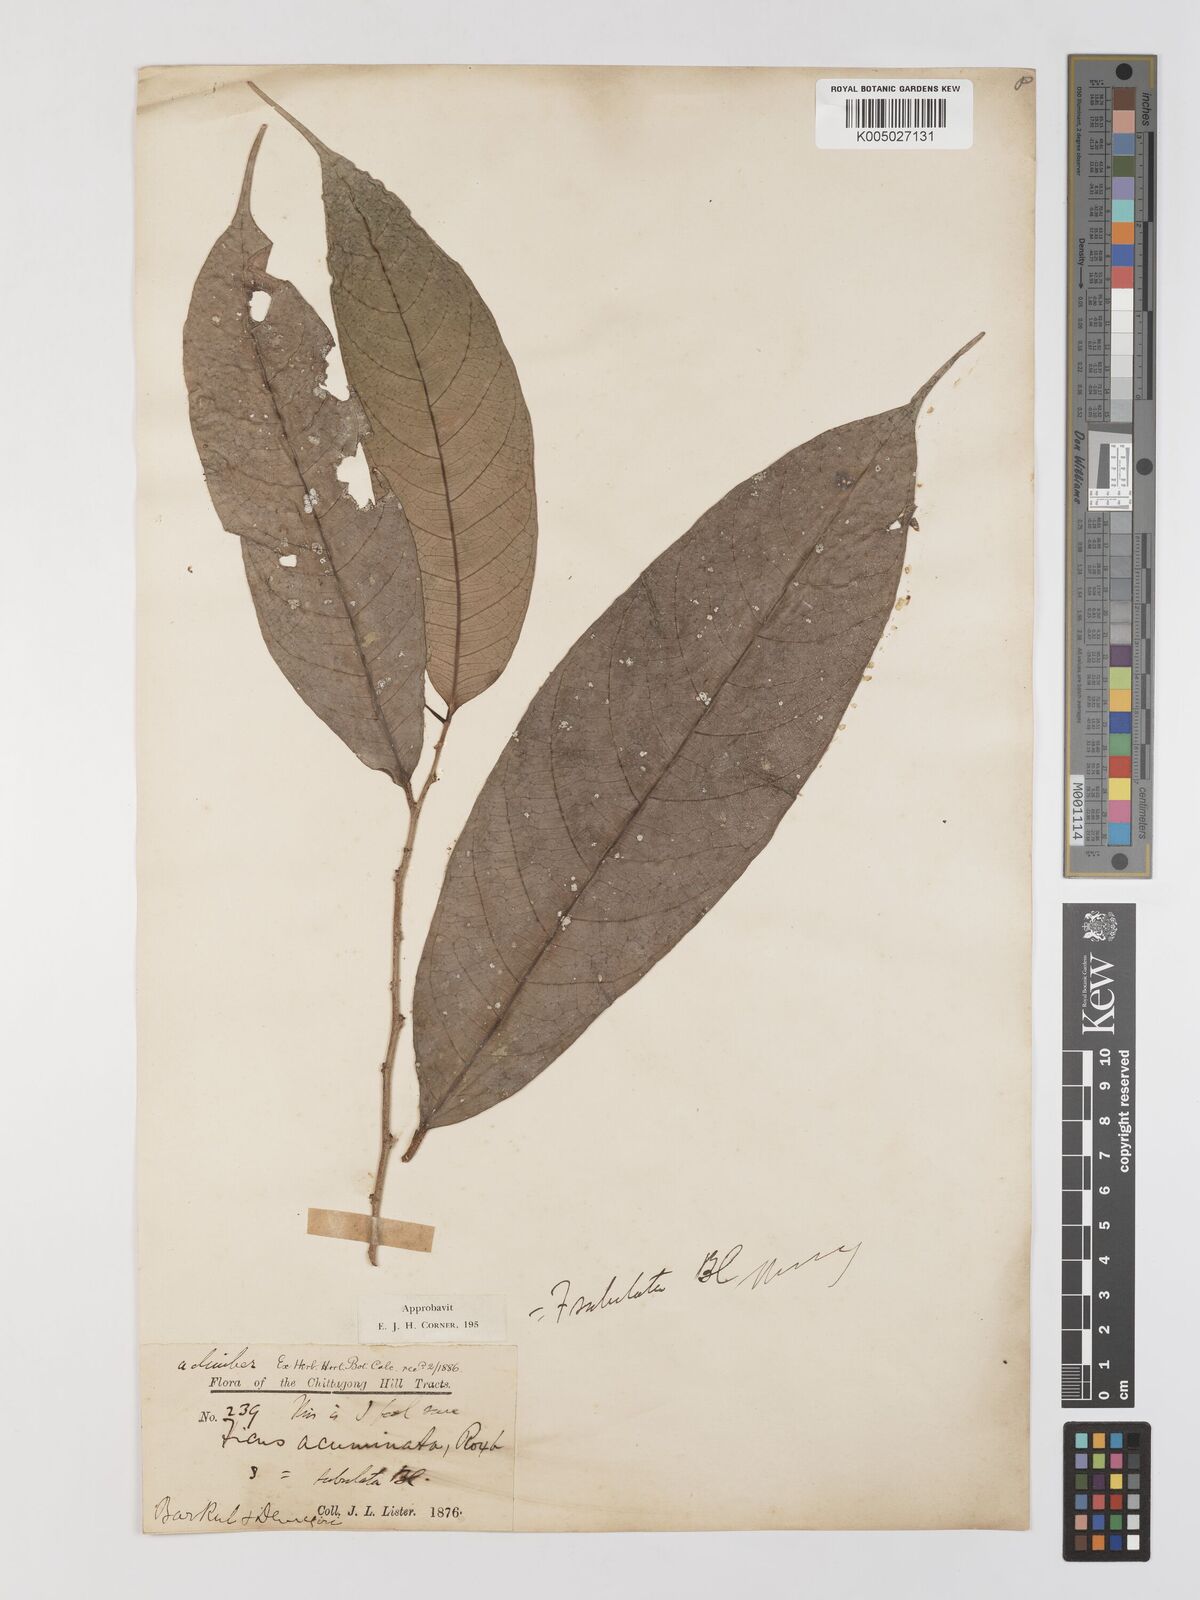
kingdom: Plantae
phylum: Tracheophyta
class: Magnoliopsida
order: Rosales
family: Moraceae
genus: Ficus
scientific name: Ficus subulata
